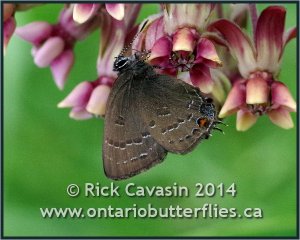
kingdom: Animalia
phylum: Arthropoda
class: Insecta
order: Lepidoptera
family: Lycaenidae
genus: Satyrium
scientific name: Satyrium calanus
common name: Banded Hairstreak
